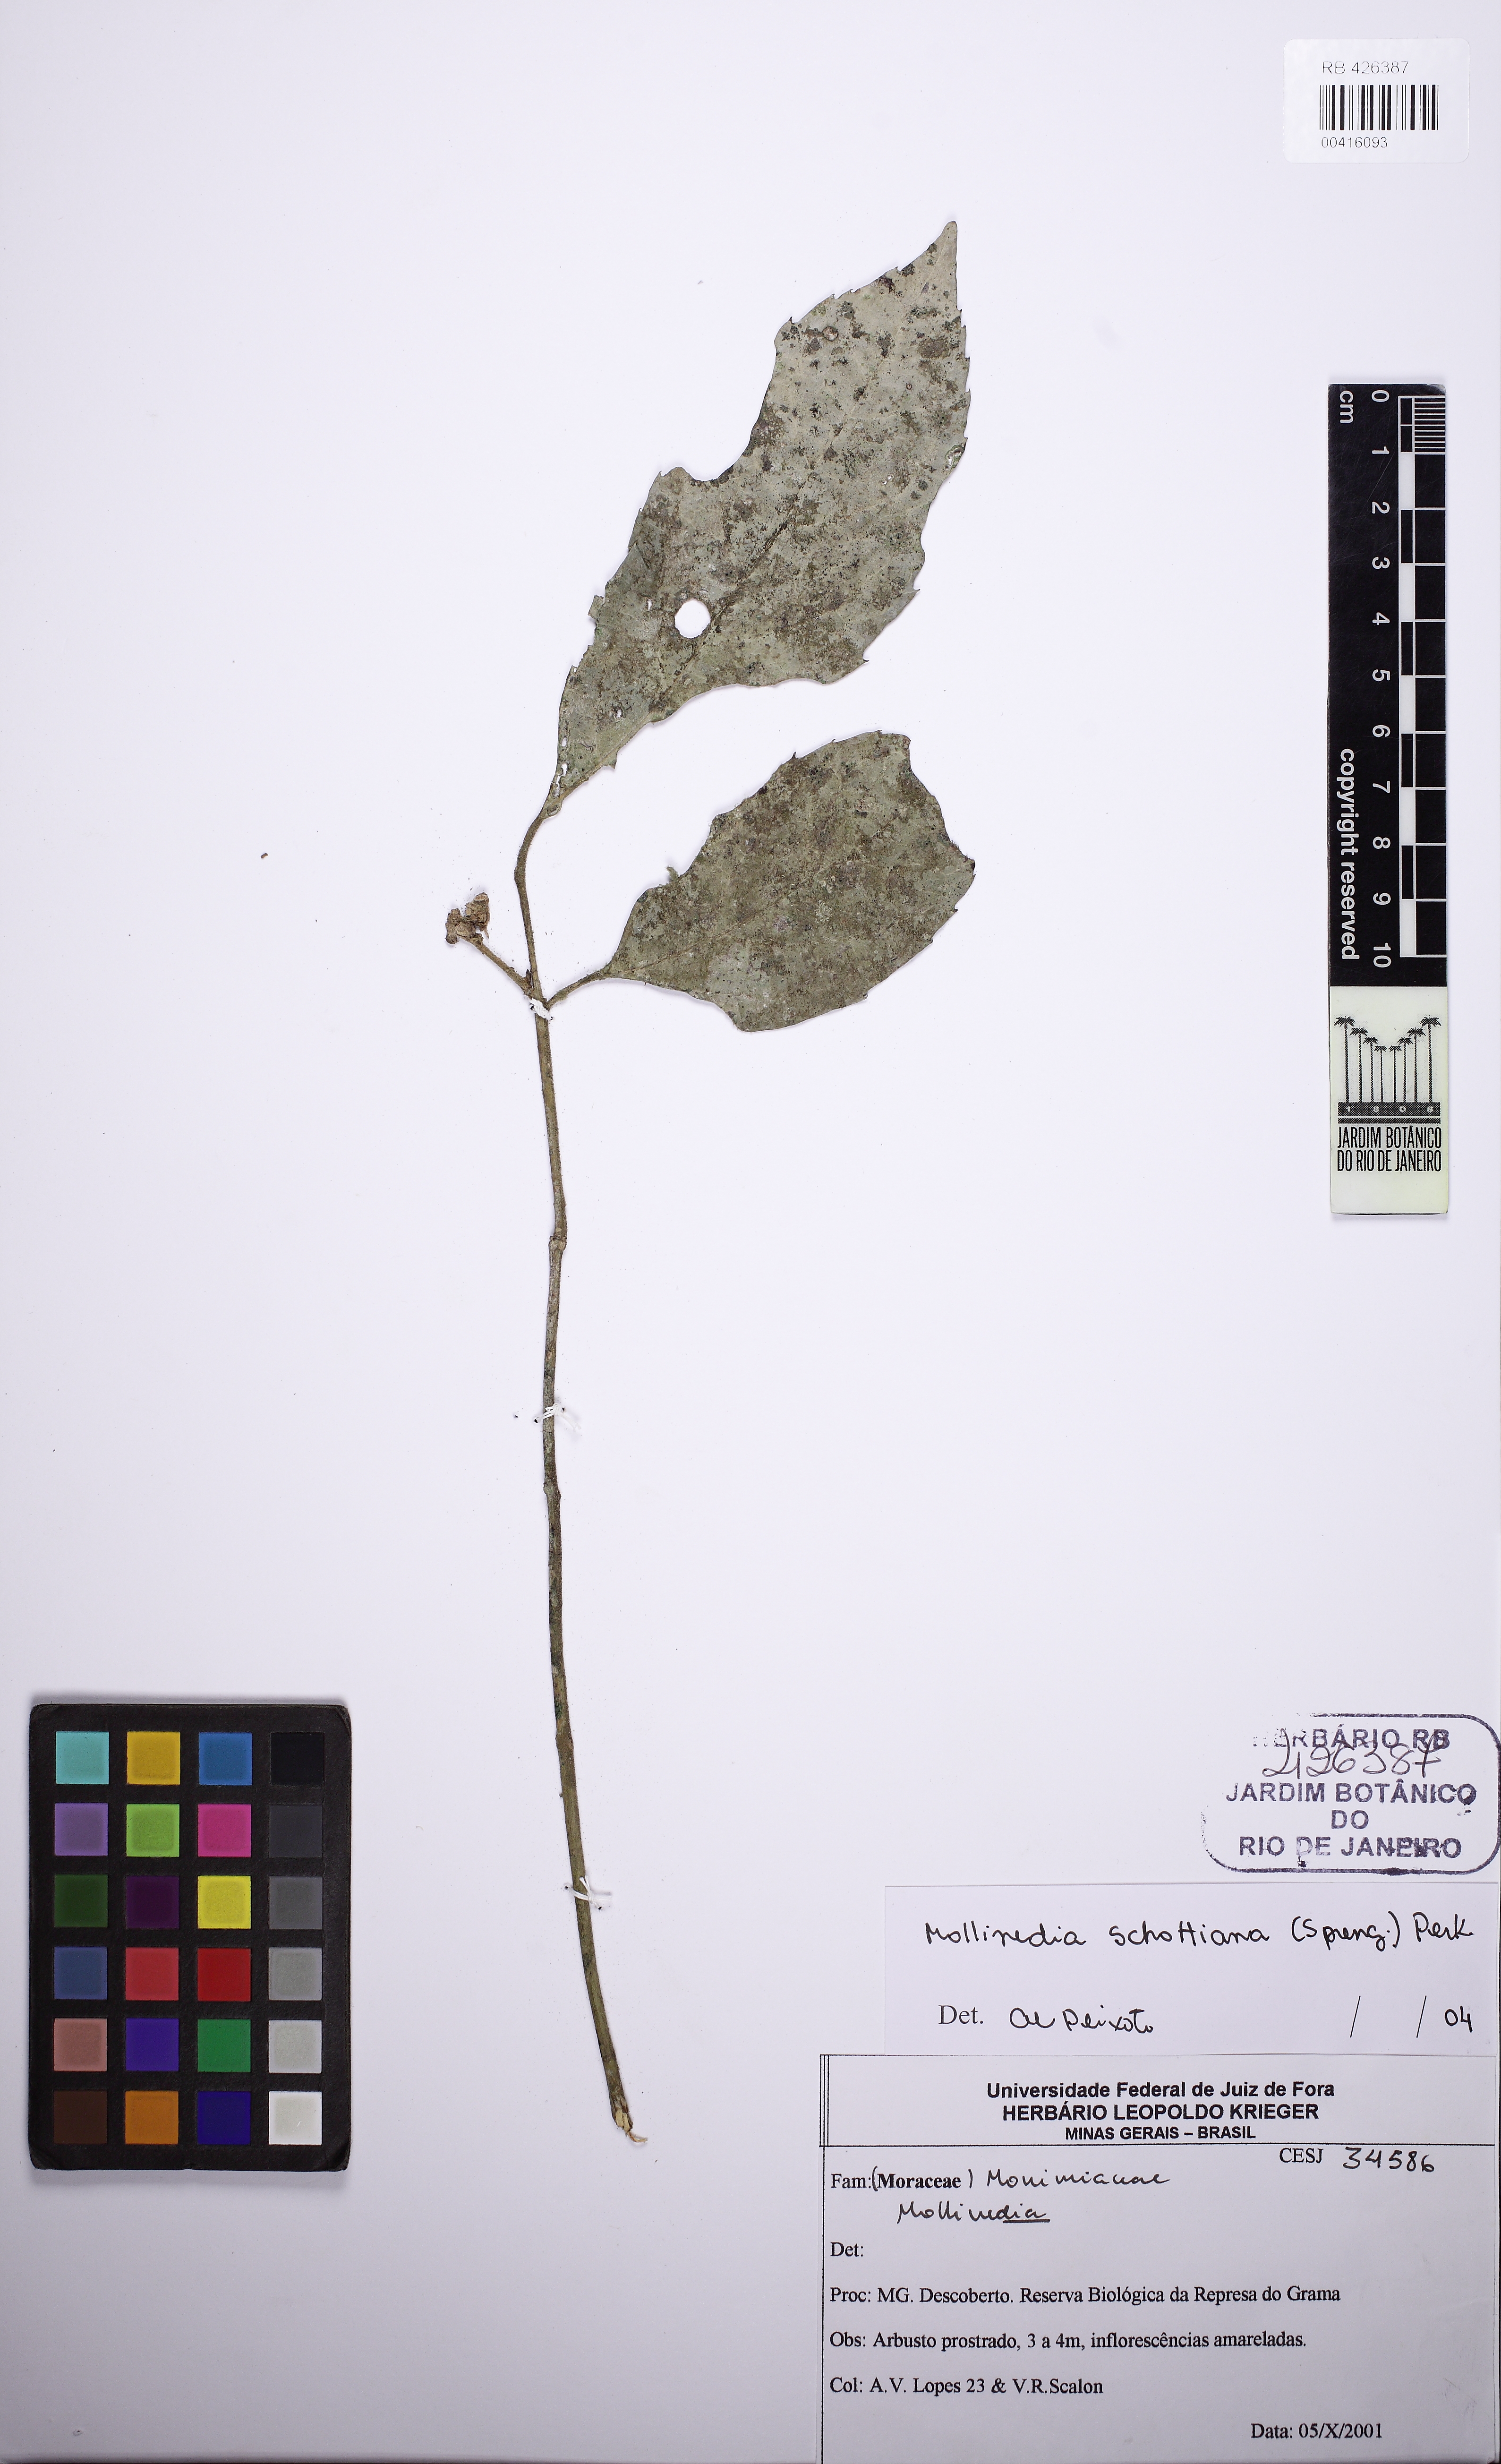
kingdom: Plantae
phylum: Tracheophyta
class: Magnoliopsida
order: Laurales
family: Monimiaceae
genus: Mollinedia
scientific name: Mollinedia umbellata
